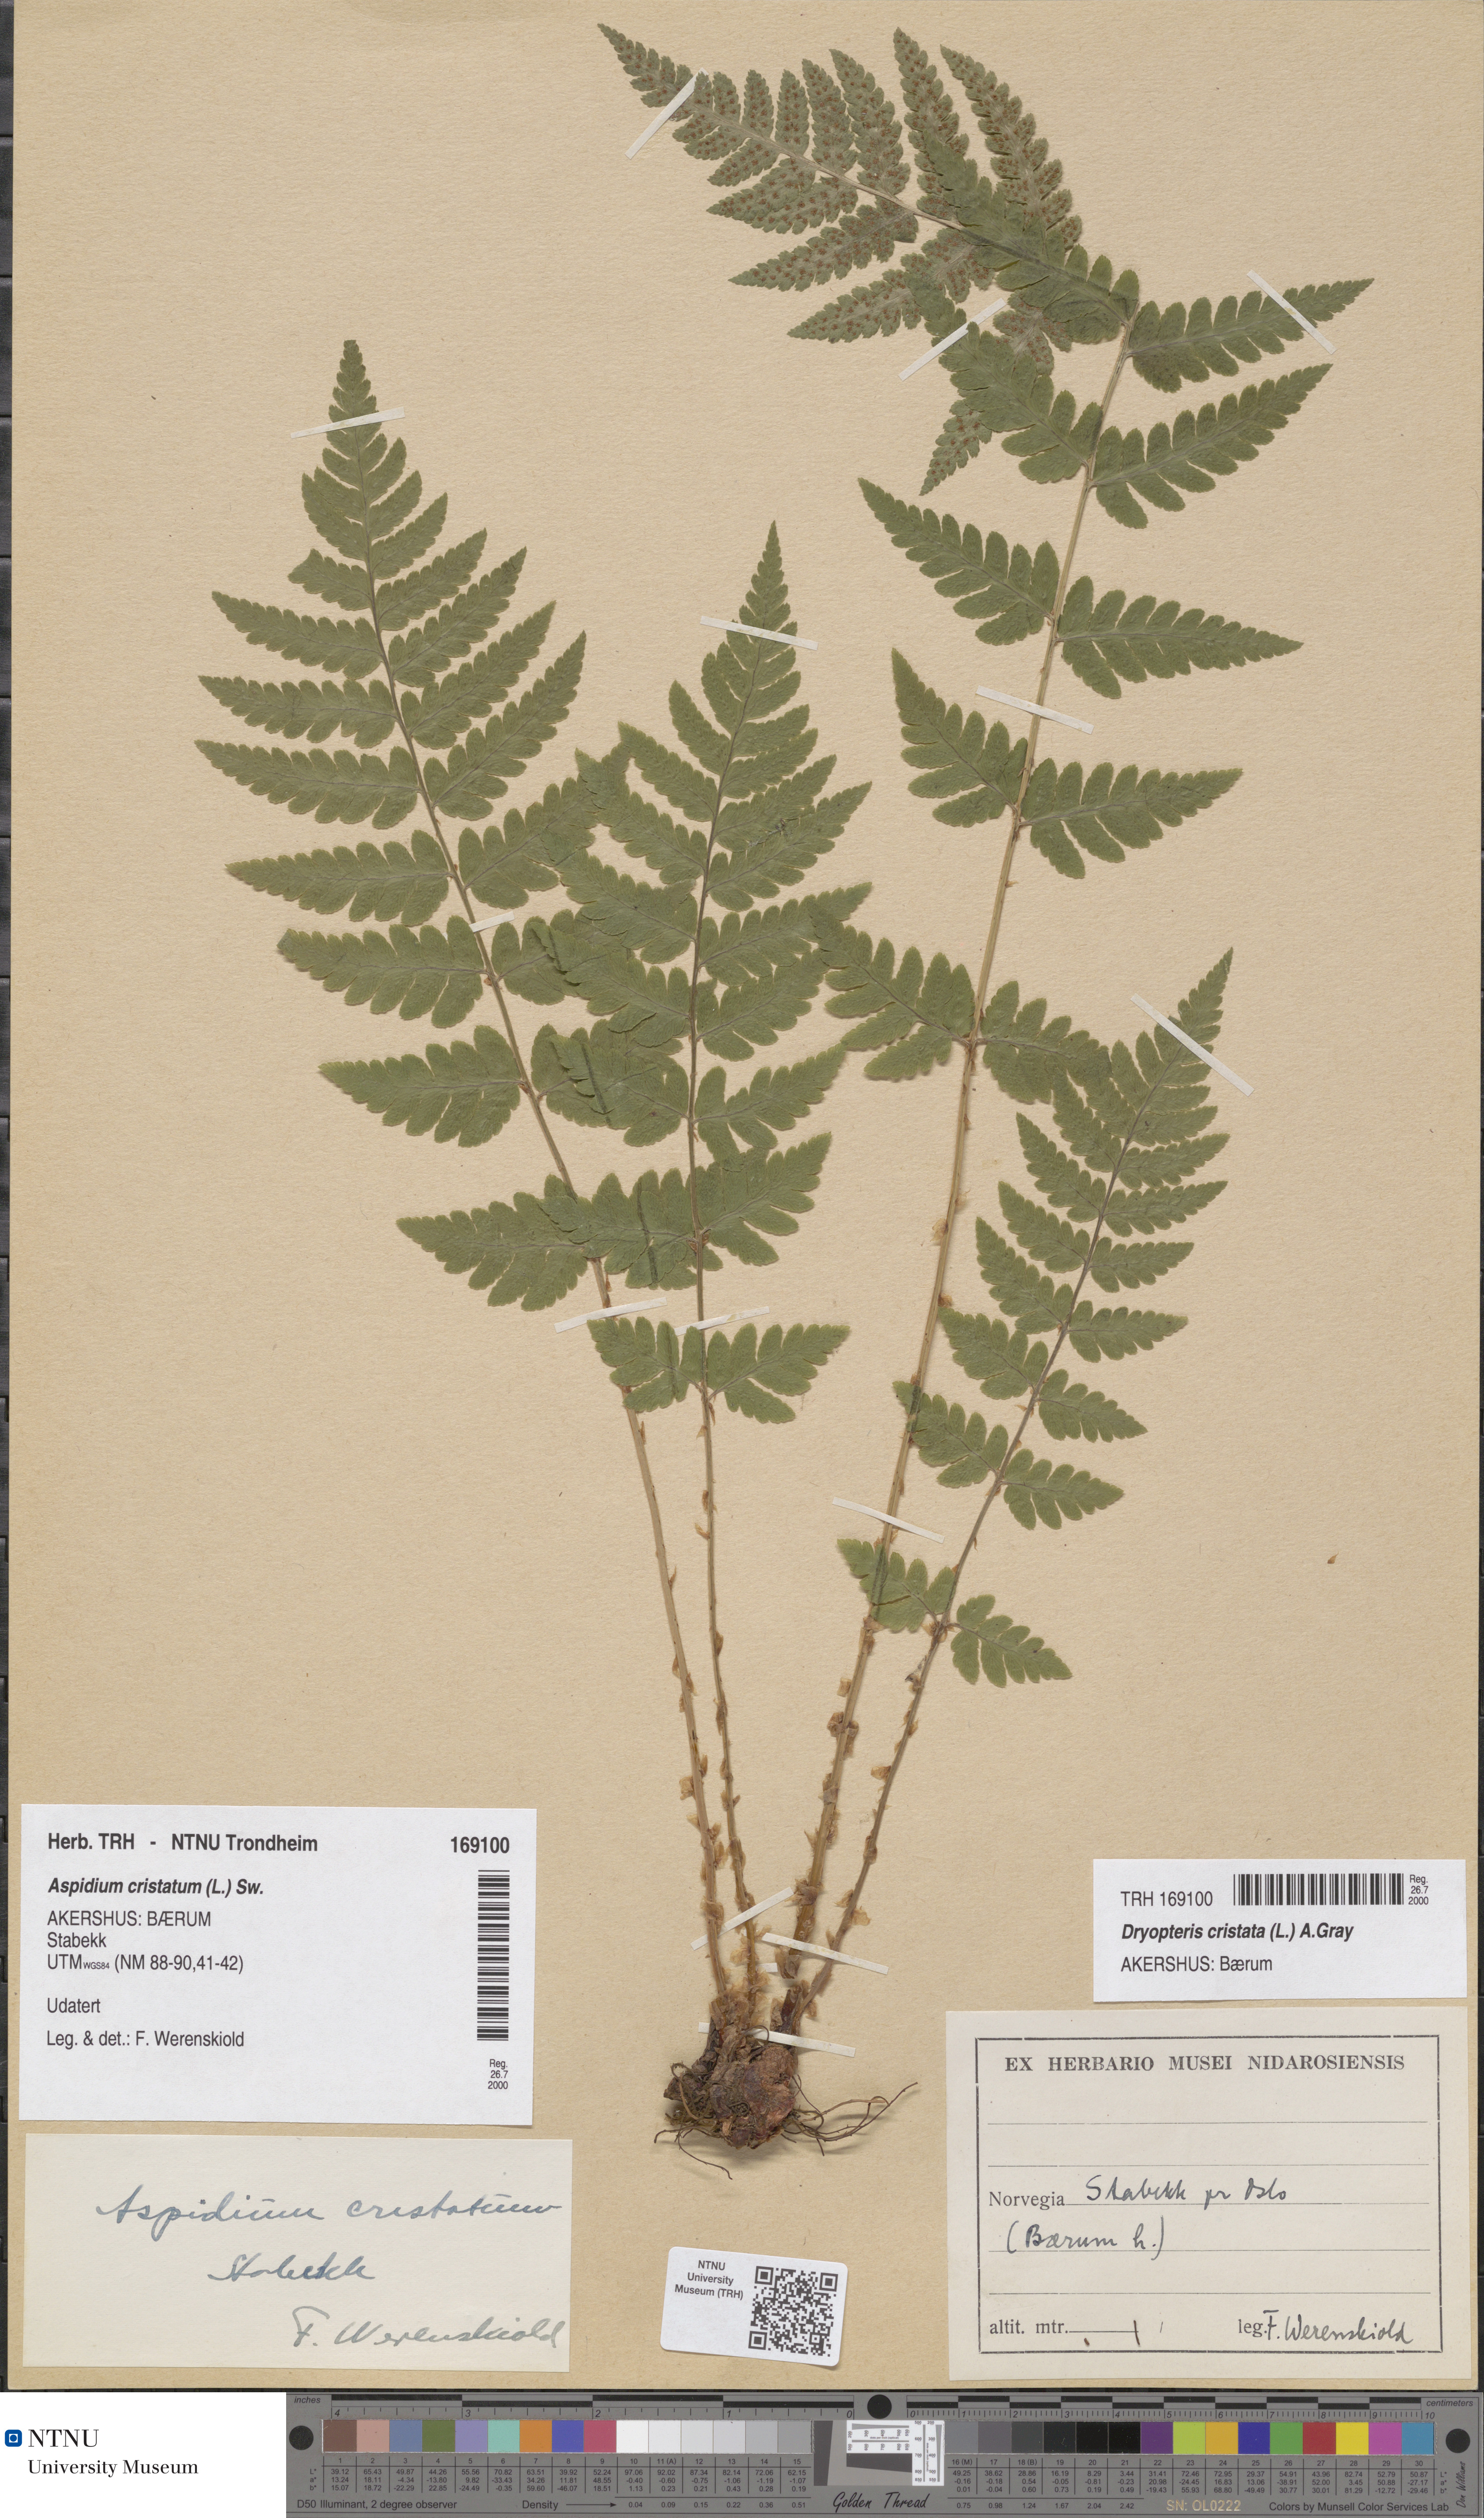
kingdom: Plantae
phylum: Tracheophyta
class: Polypodiopsida
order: Polypodiales
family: Dryopteridaceae
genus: Dryopteris
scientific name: Dryopteris cristata
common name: Crested wood fern
